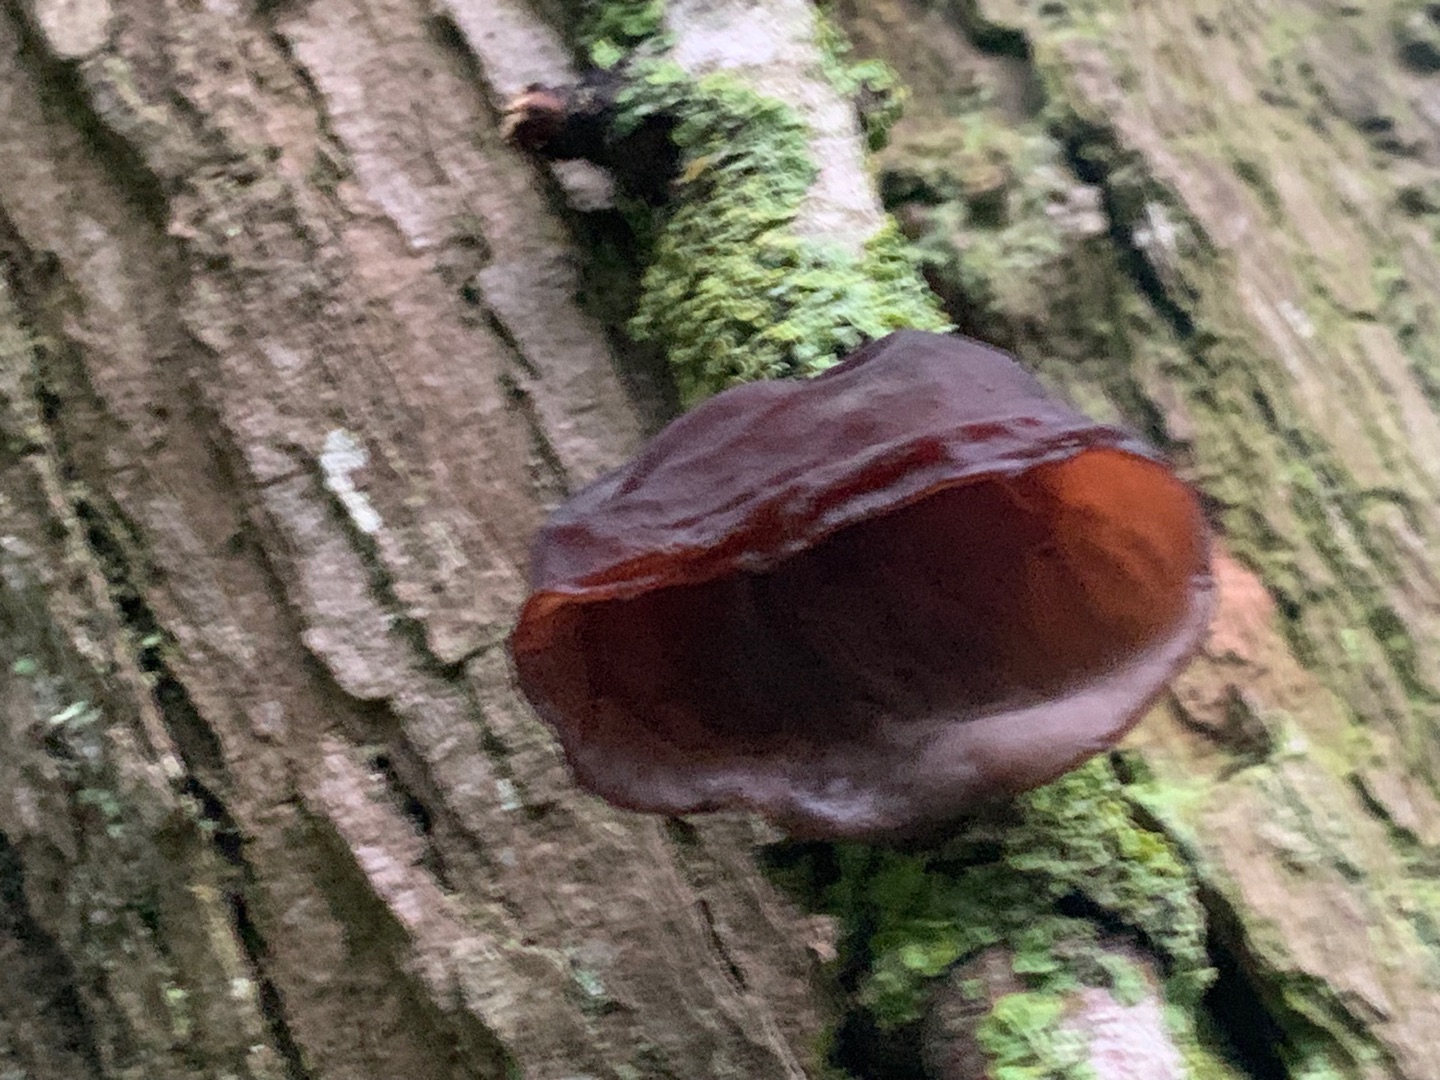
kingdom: Fungi
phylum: Basidiomycota
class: Agaricomycetes
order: Auriculariales
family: Auriculariaceae
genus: Auricularia
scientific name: Auricularia auricula-judae
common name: Almindelig judasøre
